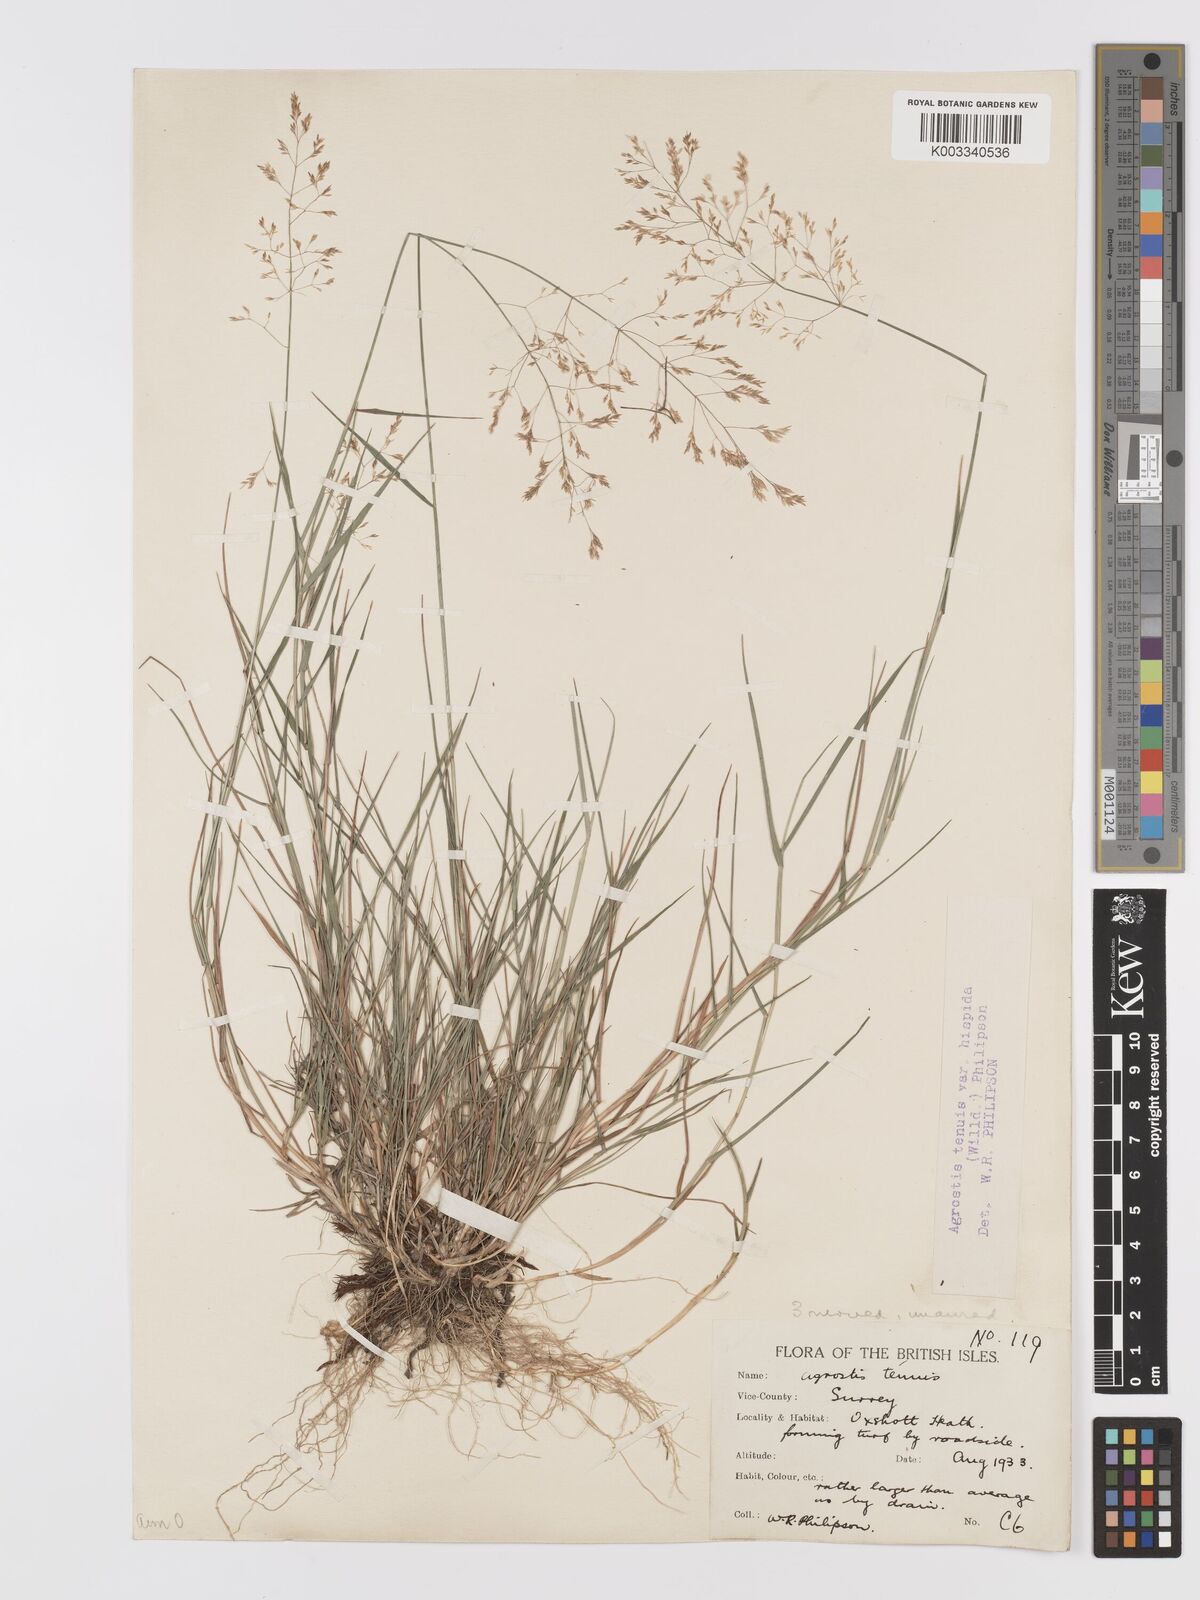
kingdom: Plantae
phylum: Tracheophyta
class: Liliopsida
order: Poales
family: Poaceae
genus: Agrostis
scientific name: Agrostis capillaris
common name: Colonial bentgrass
